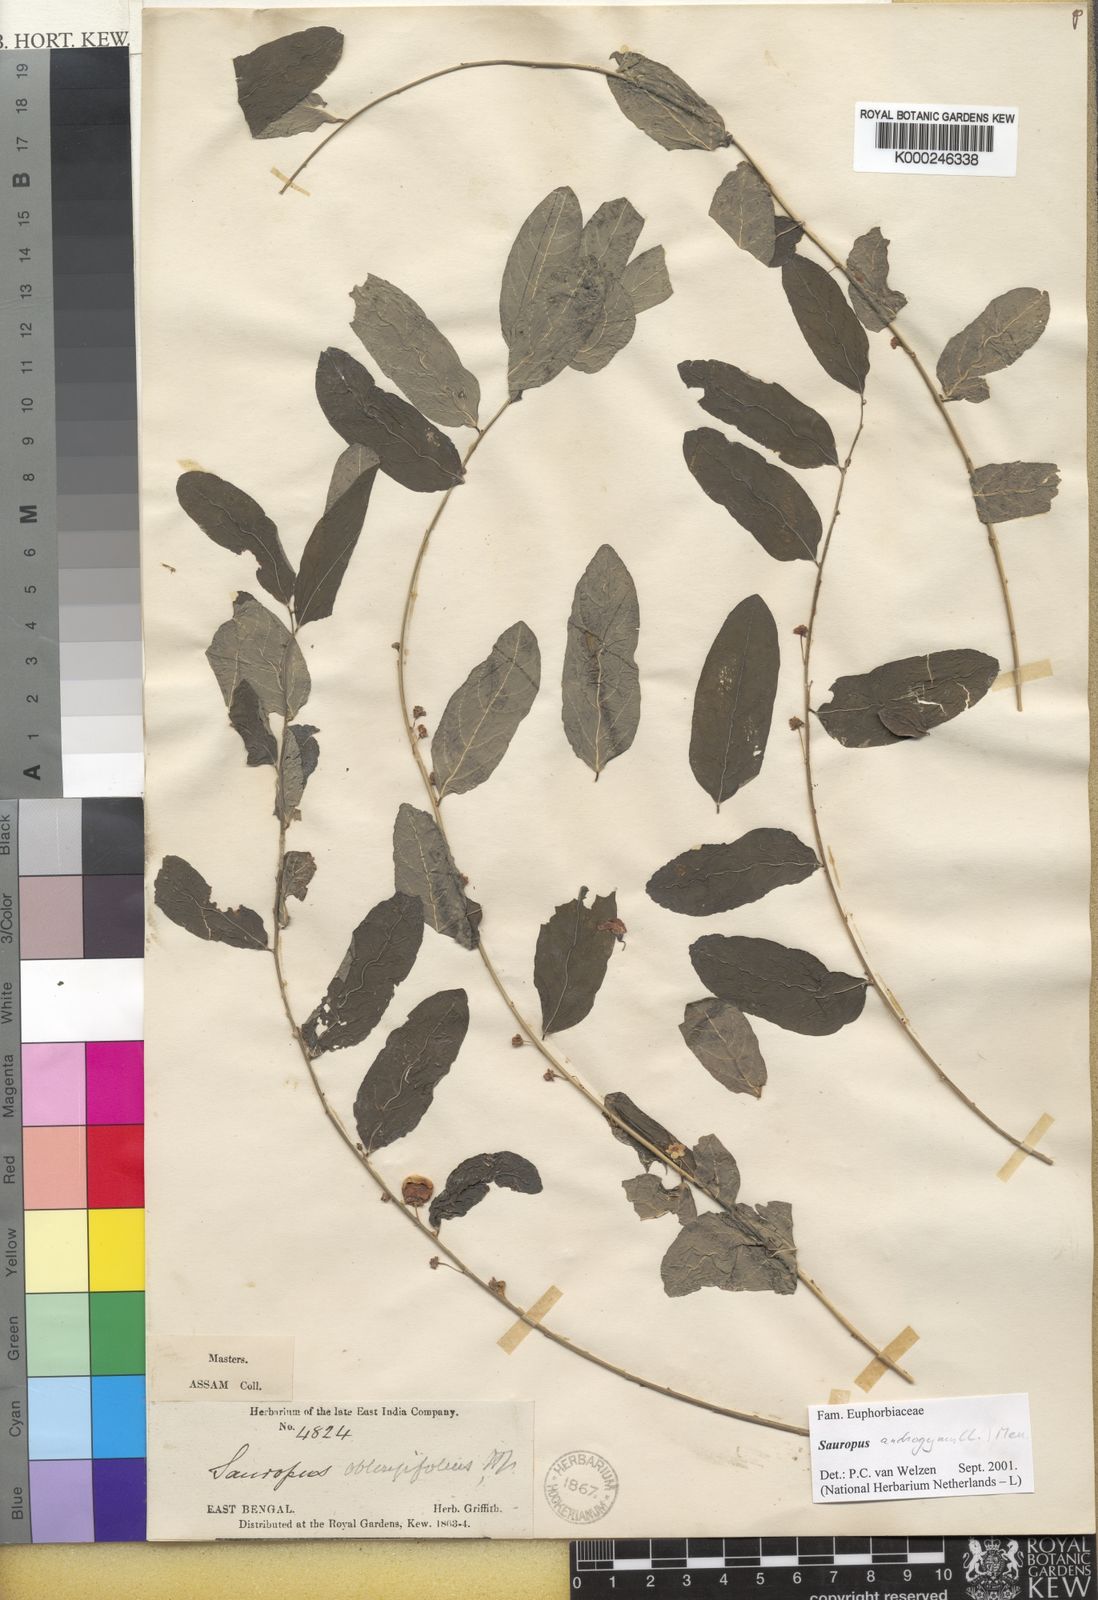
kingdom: Plantae
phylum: Tracheophyta
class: Magnoliopsida
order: Malpighiales
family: Phyllanthaceae
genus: Breynia
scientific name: Breynia androgyna
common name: Star gooseberry
